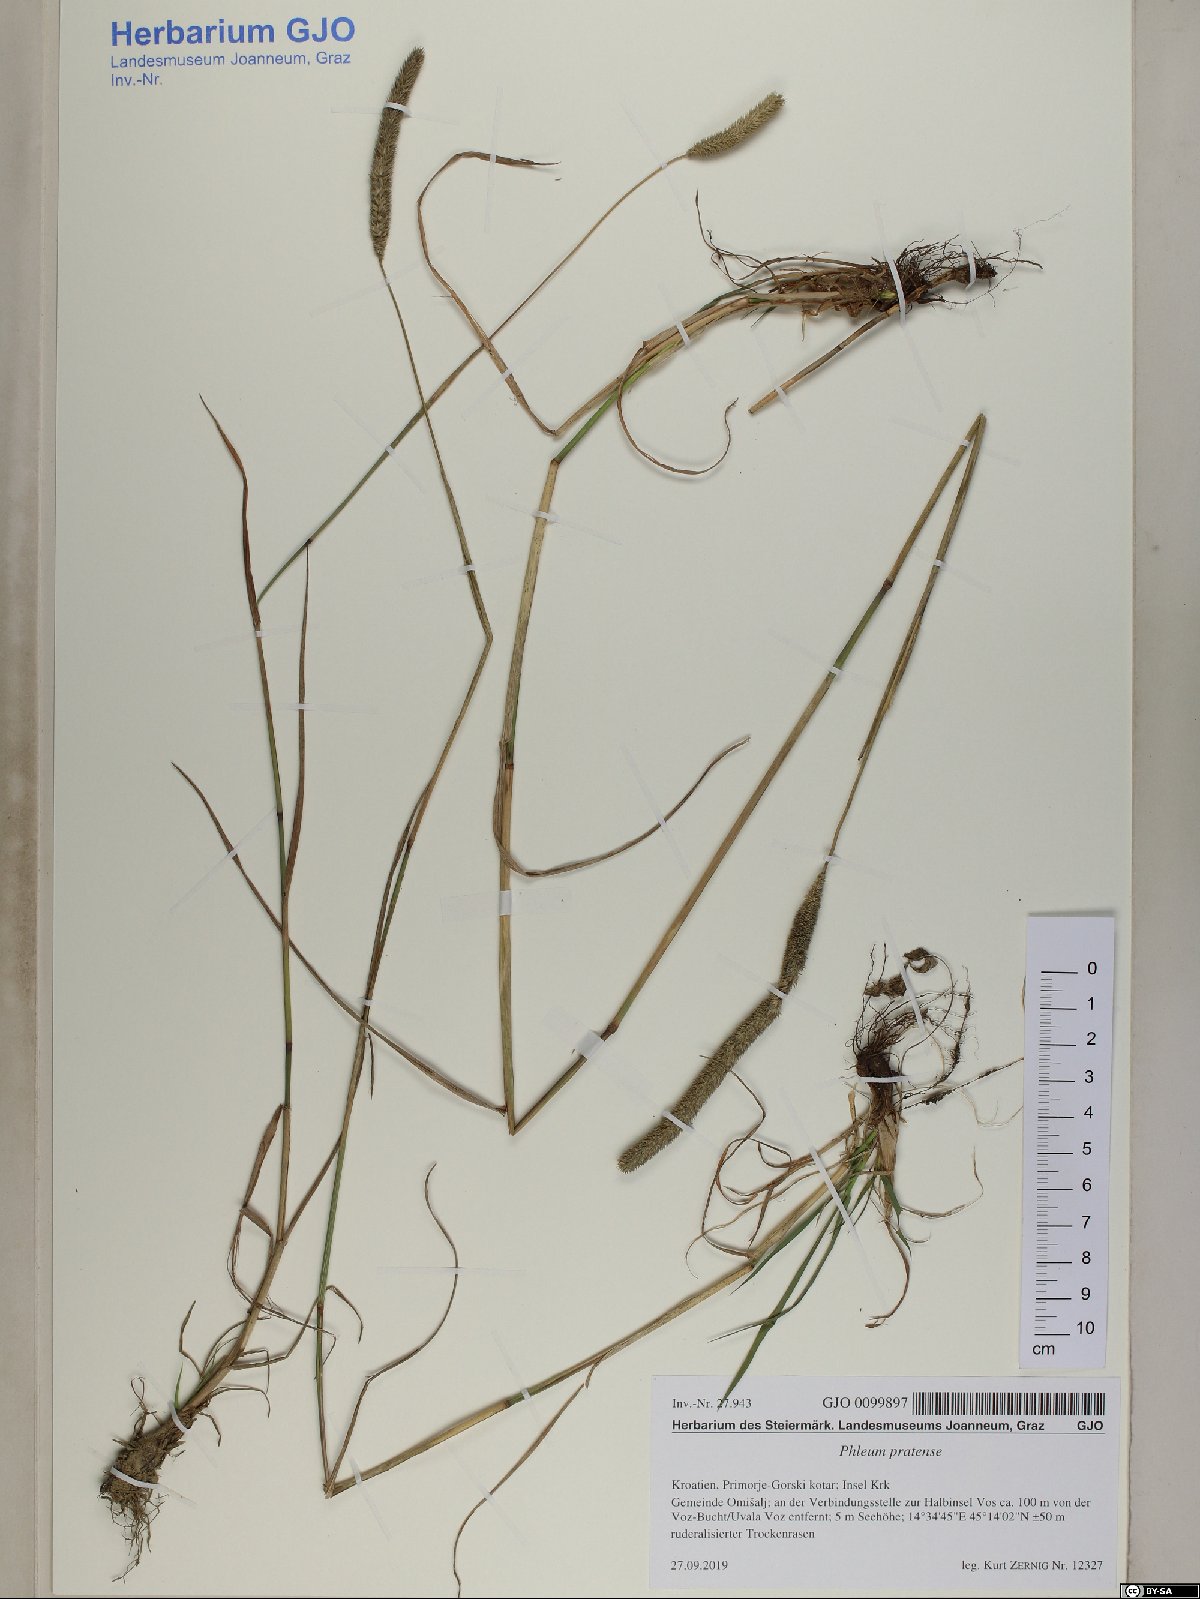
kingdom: Plantae
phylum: Tracheophyta
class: Liliopsida
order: Poales
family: Poaceae
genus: Phleum
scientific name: Phleum pratense
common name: Timothy grass
